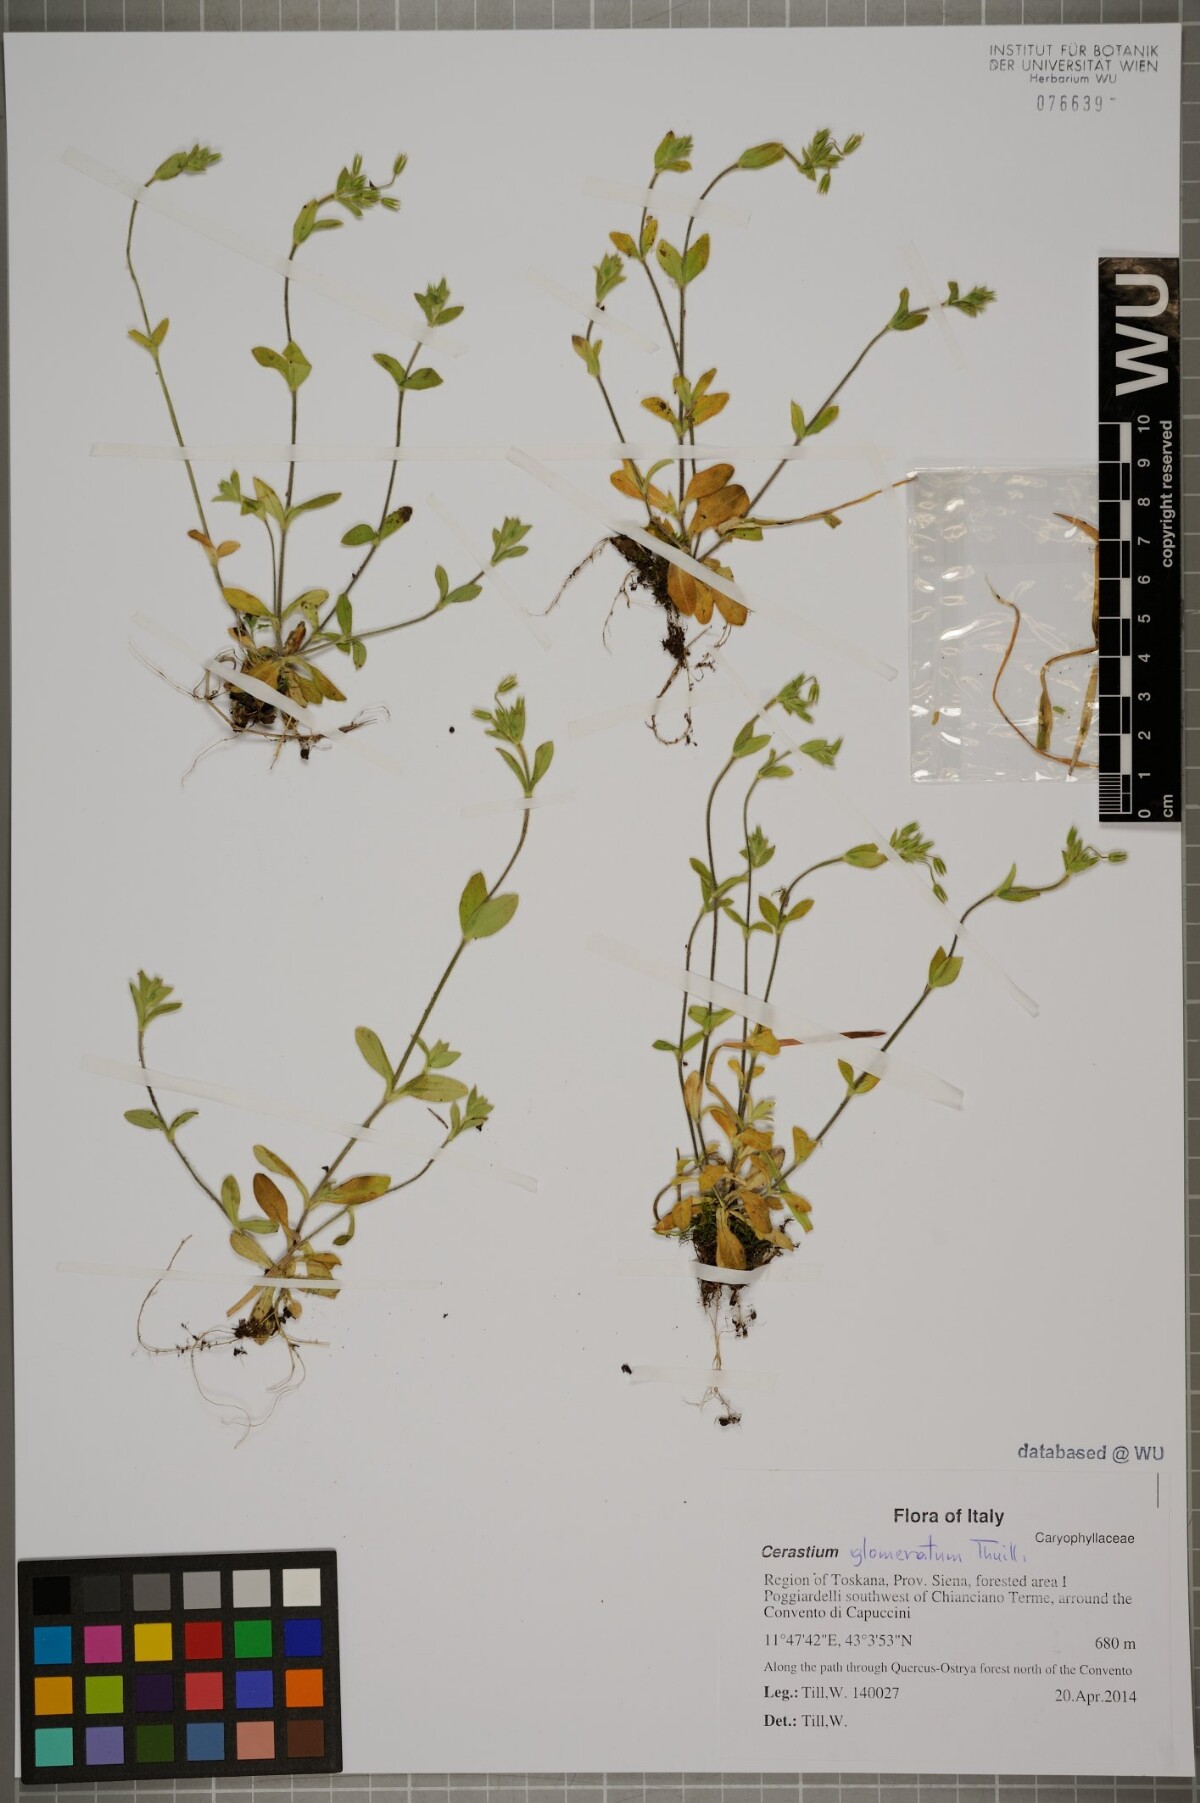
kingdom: Plantae
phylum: Tracheophyta
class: Magnoliopsida
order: Caryophyllales
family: Caryophyllaceae
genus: Cerastium
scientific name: Cerastium glomeratum
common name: Sticky chickweed
